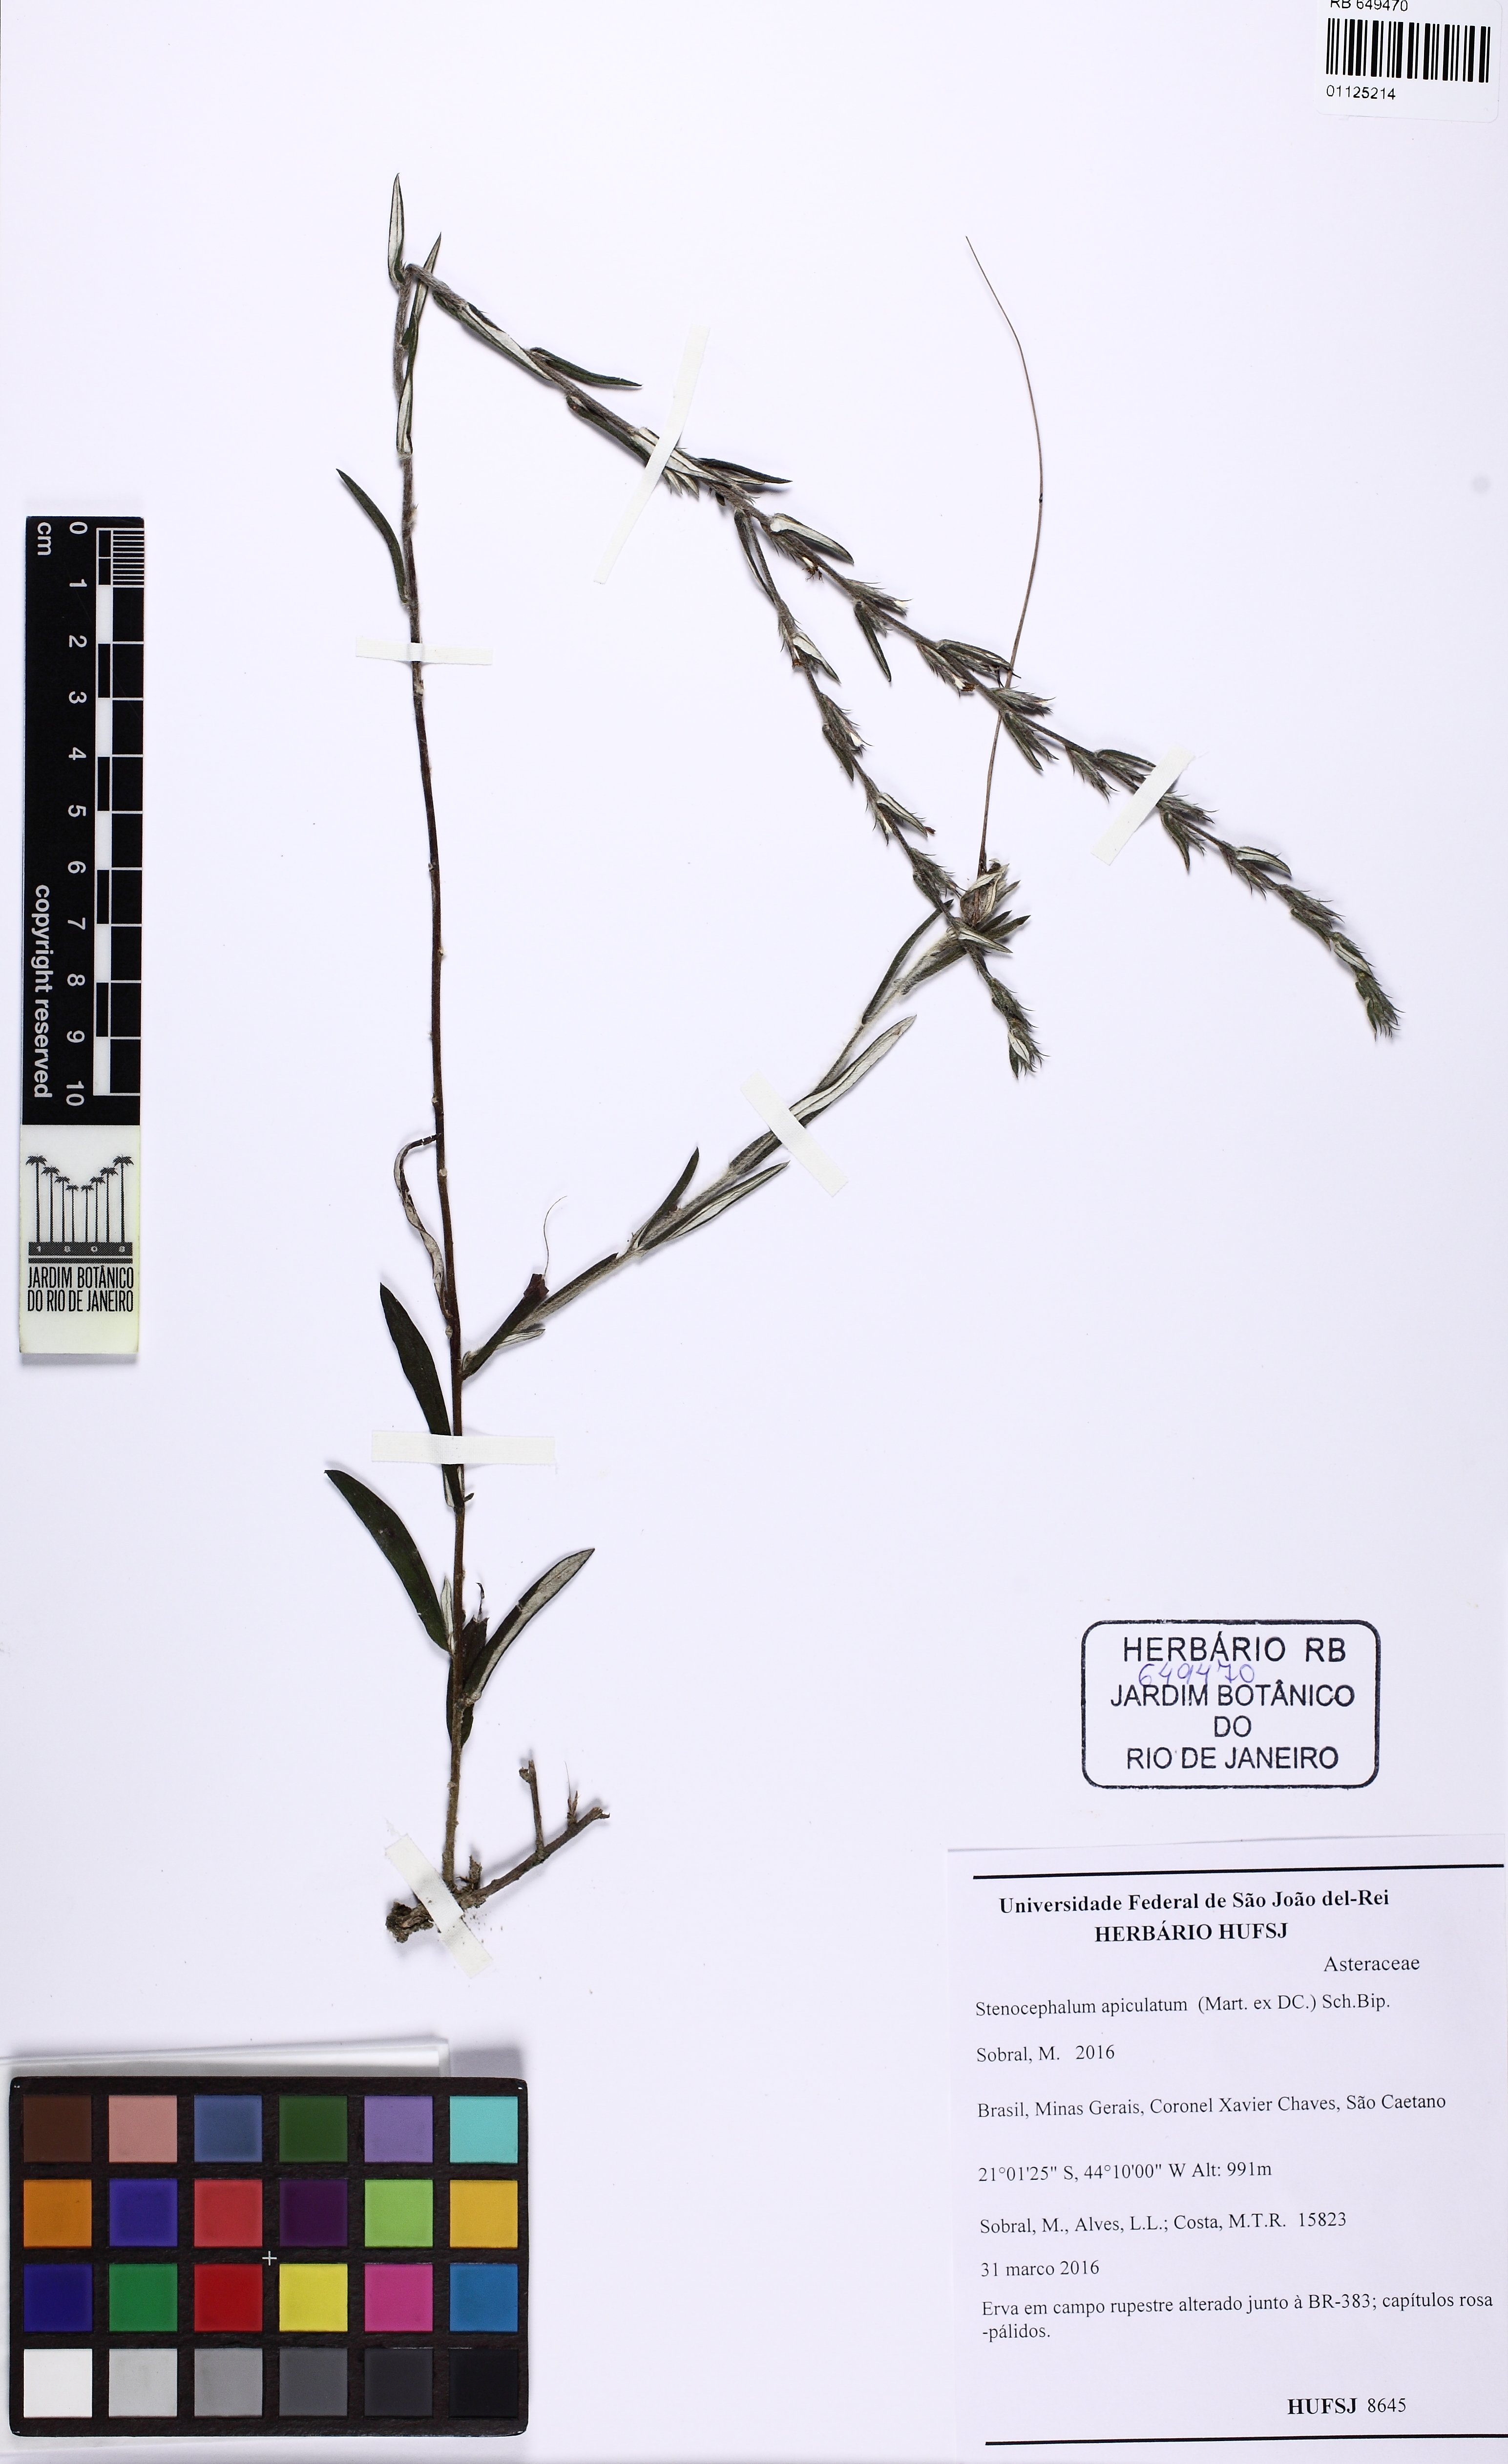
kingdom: Plantae
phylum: Tracheophyta
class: Magnoliopsida
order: Asterales
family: Asteraceae
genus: Stenocephalum
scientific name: Stenocephalum apiculatum
